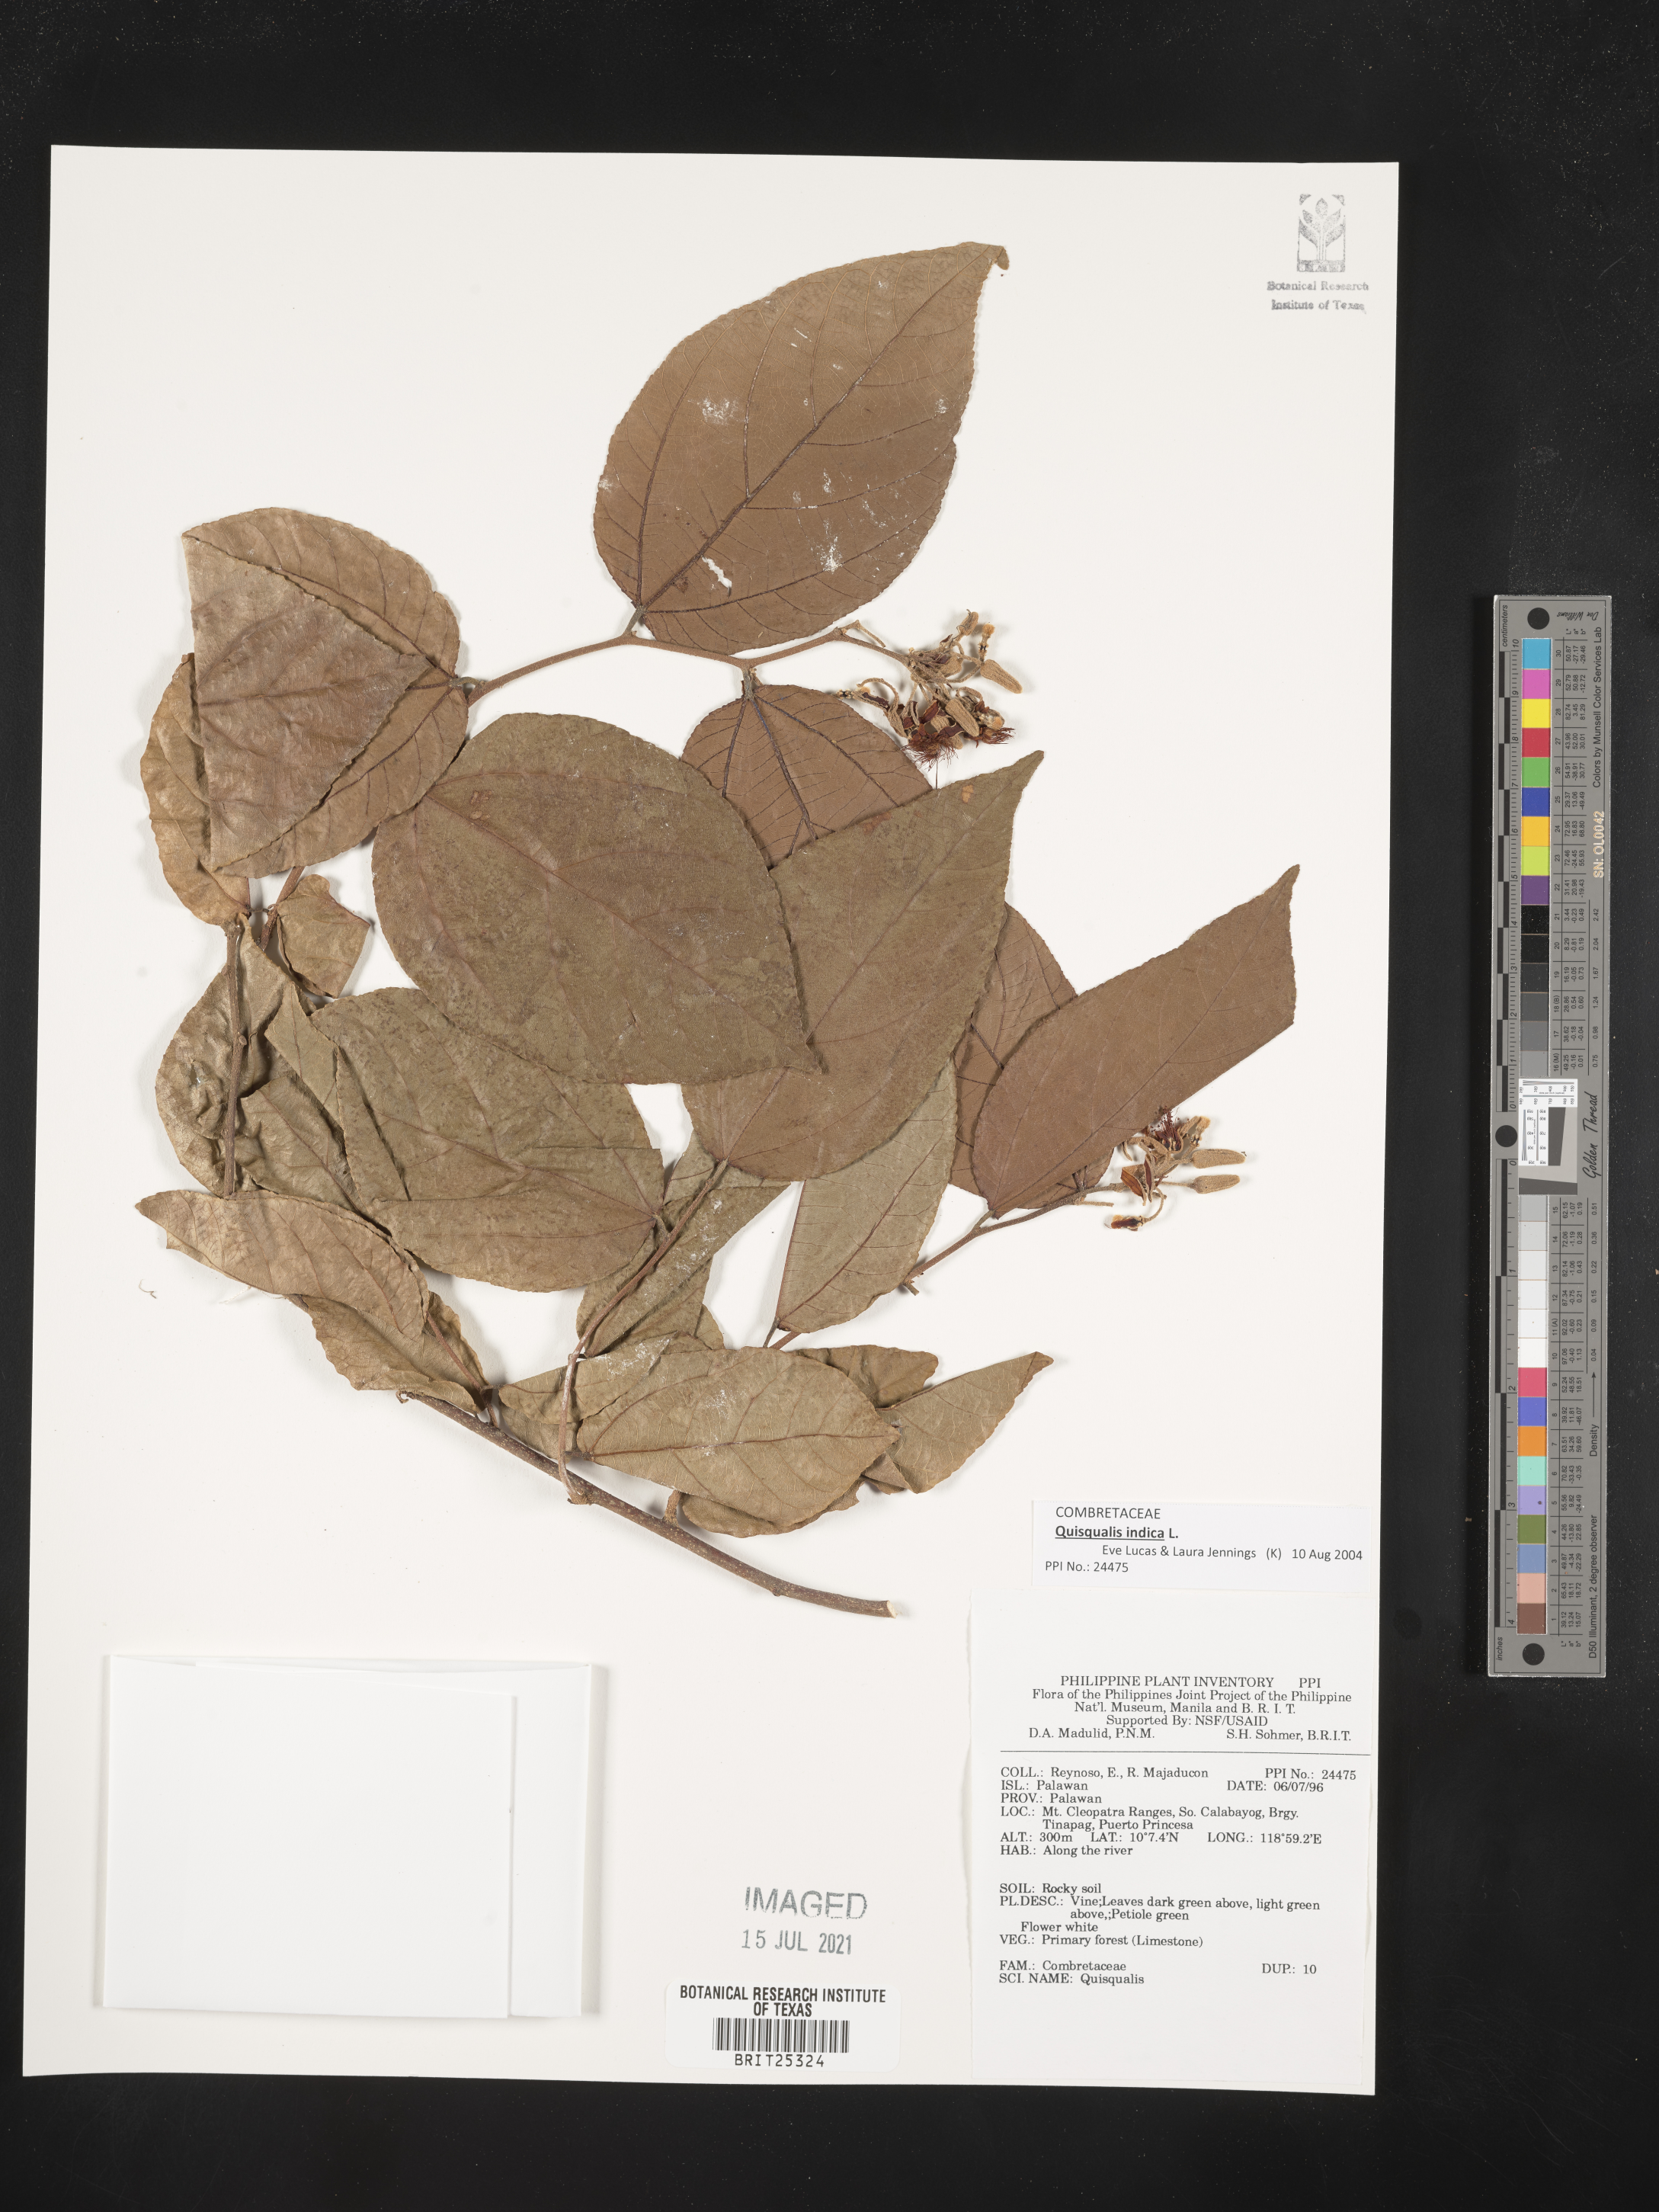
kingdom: Plantae
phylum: Tracheophyta
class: Magnoliopsida
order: Myrtales
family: Combretaceae
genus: Combretum
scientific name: Combretum
